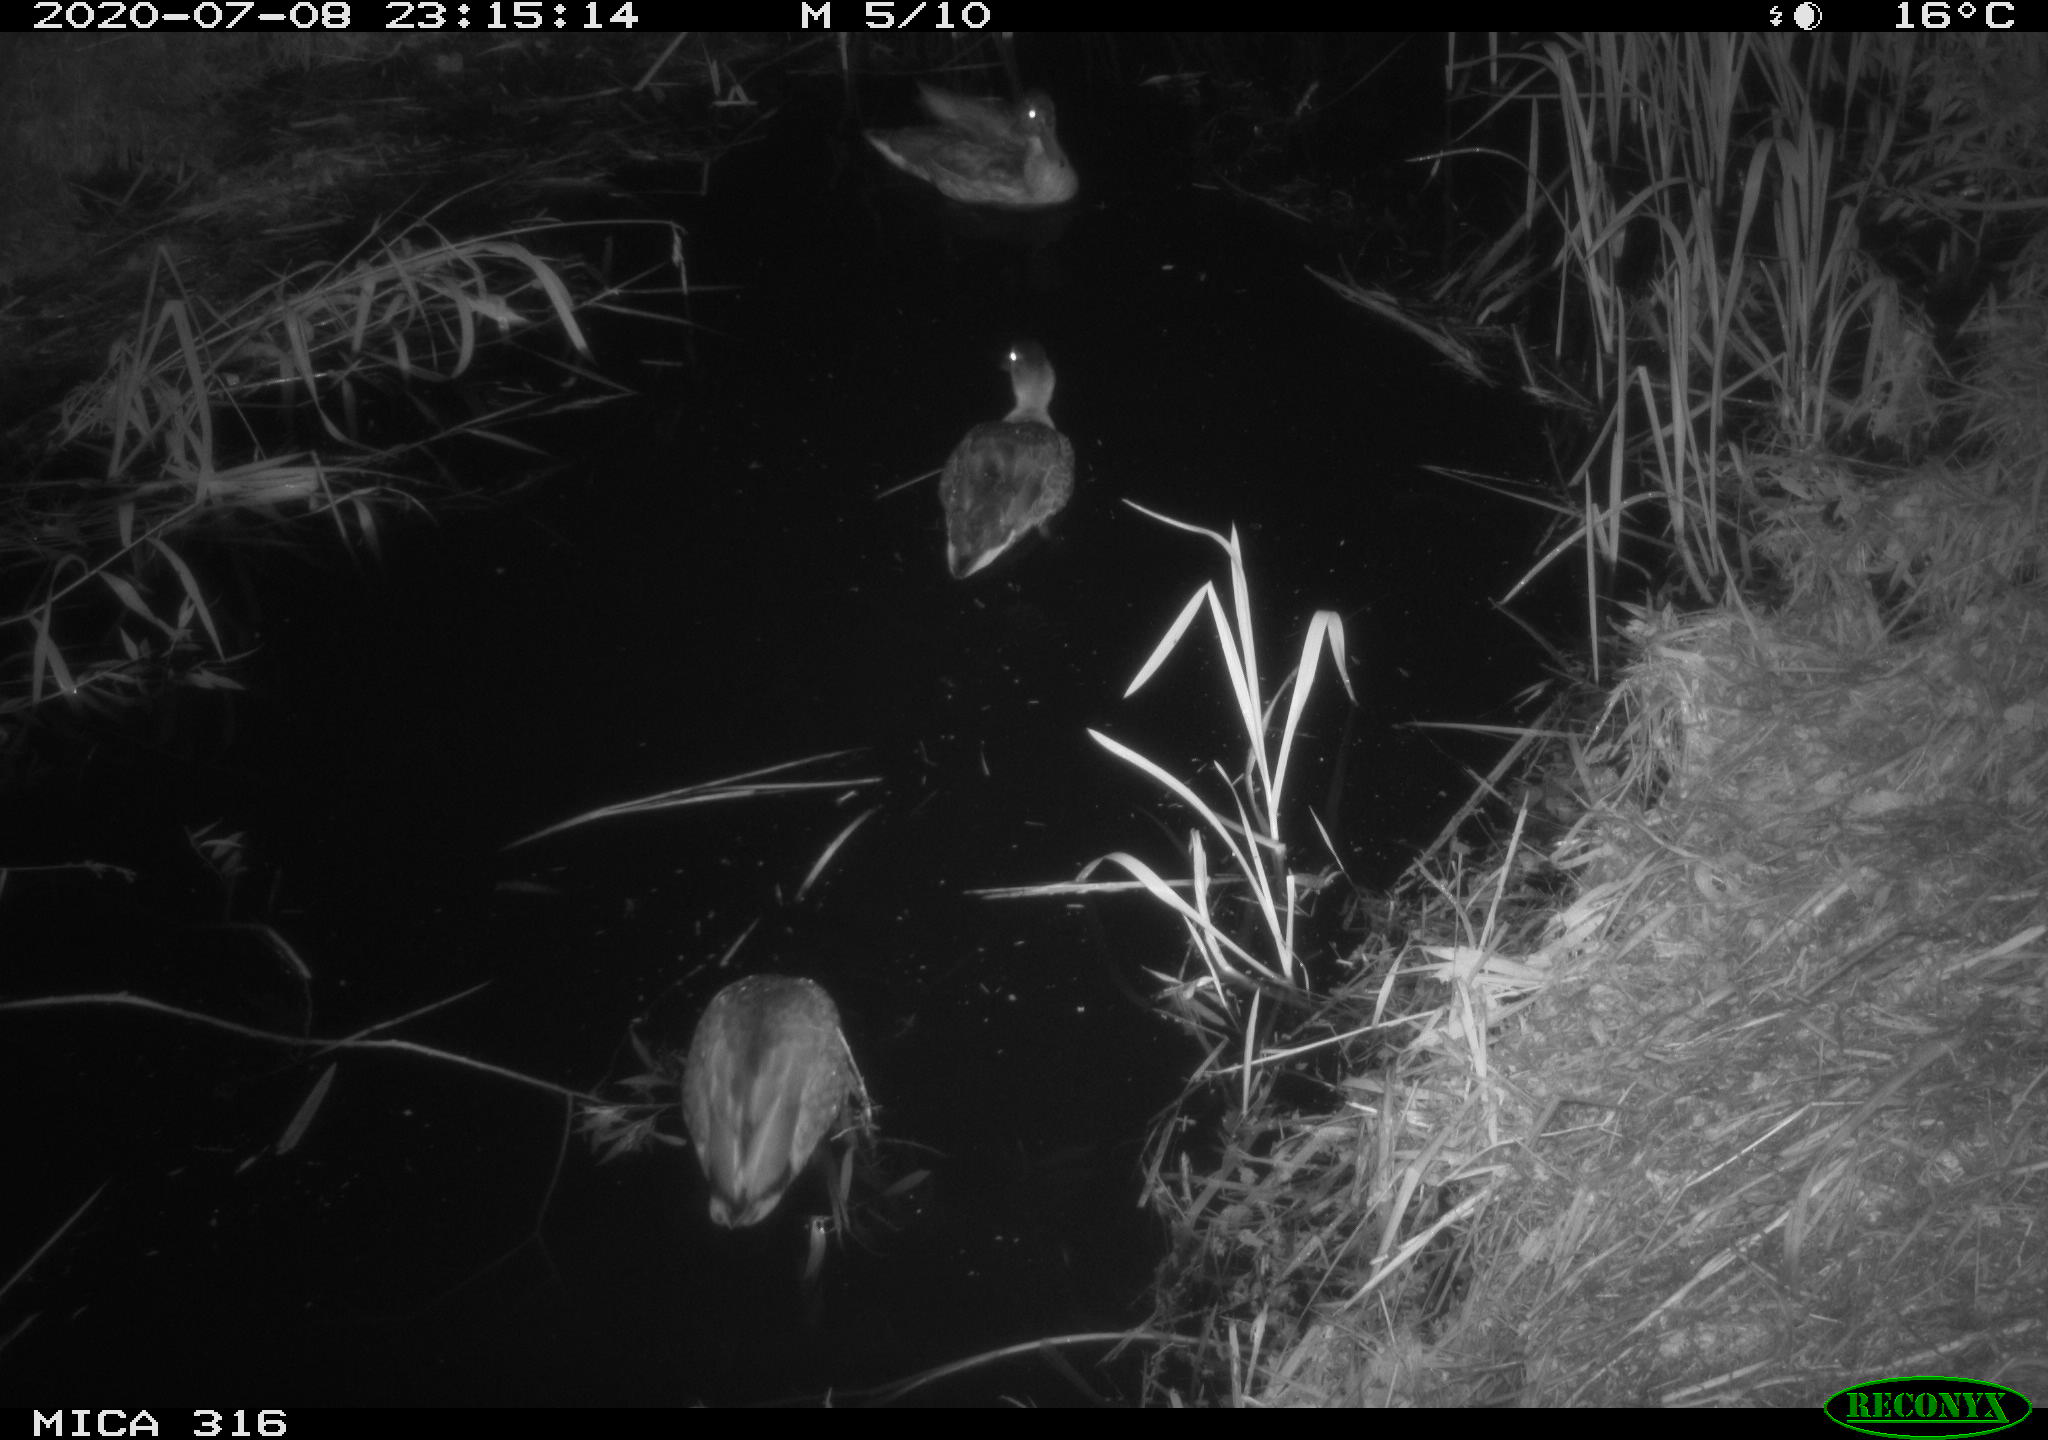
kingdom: Animalia
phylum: Chordata
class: Aves
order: Anseriformes
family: Anatidae
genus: Anas
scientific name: Anas platyrhynchos
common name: Mallard
